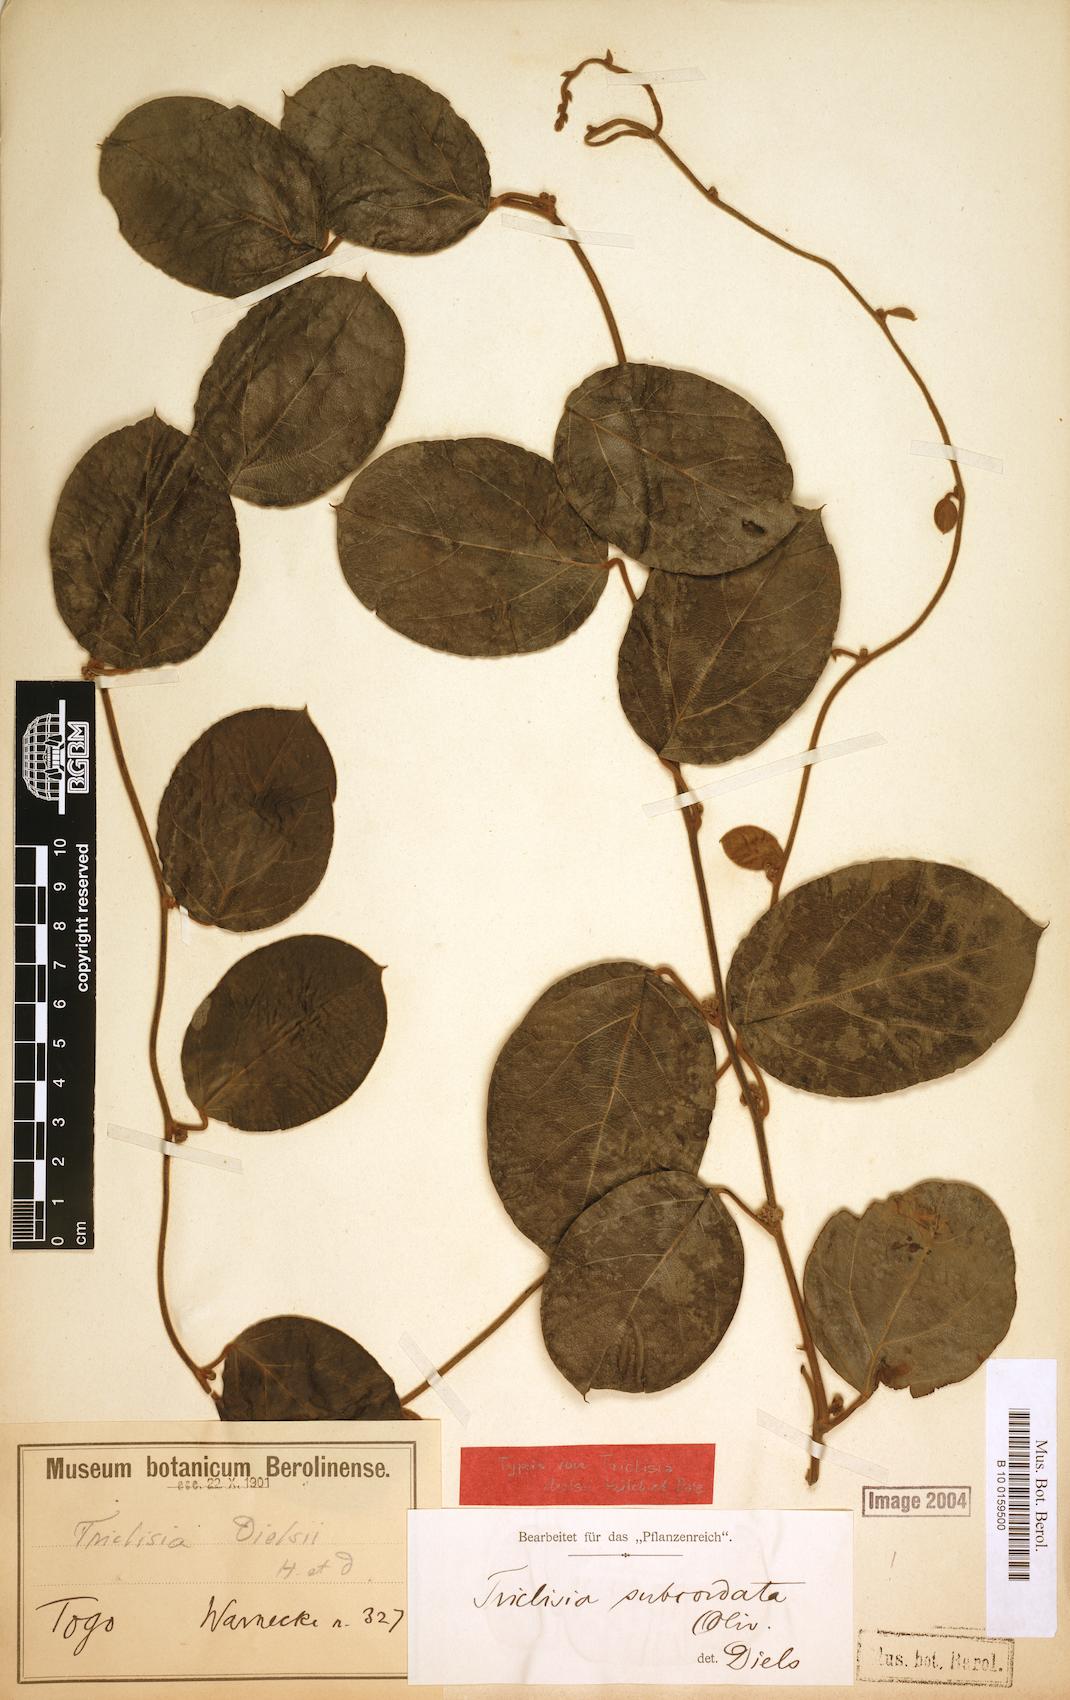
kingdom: Plantae
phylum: Tracheophyta
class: Magnoliopsida
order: Ranunculales
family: Menispermaceae
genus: Triclisia
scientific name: Triclisia subcordata
